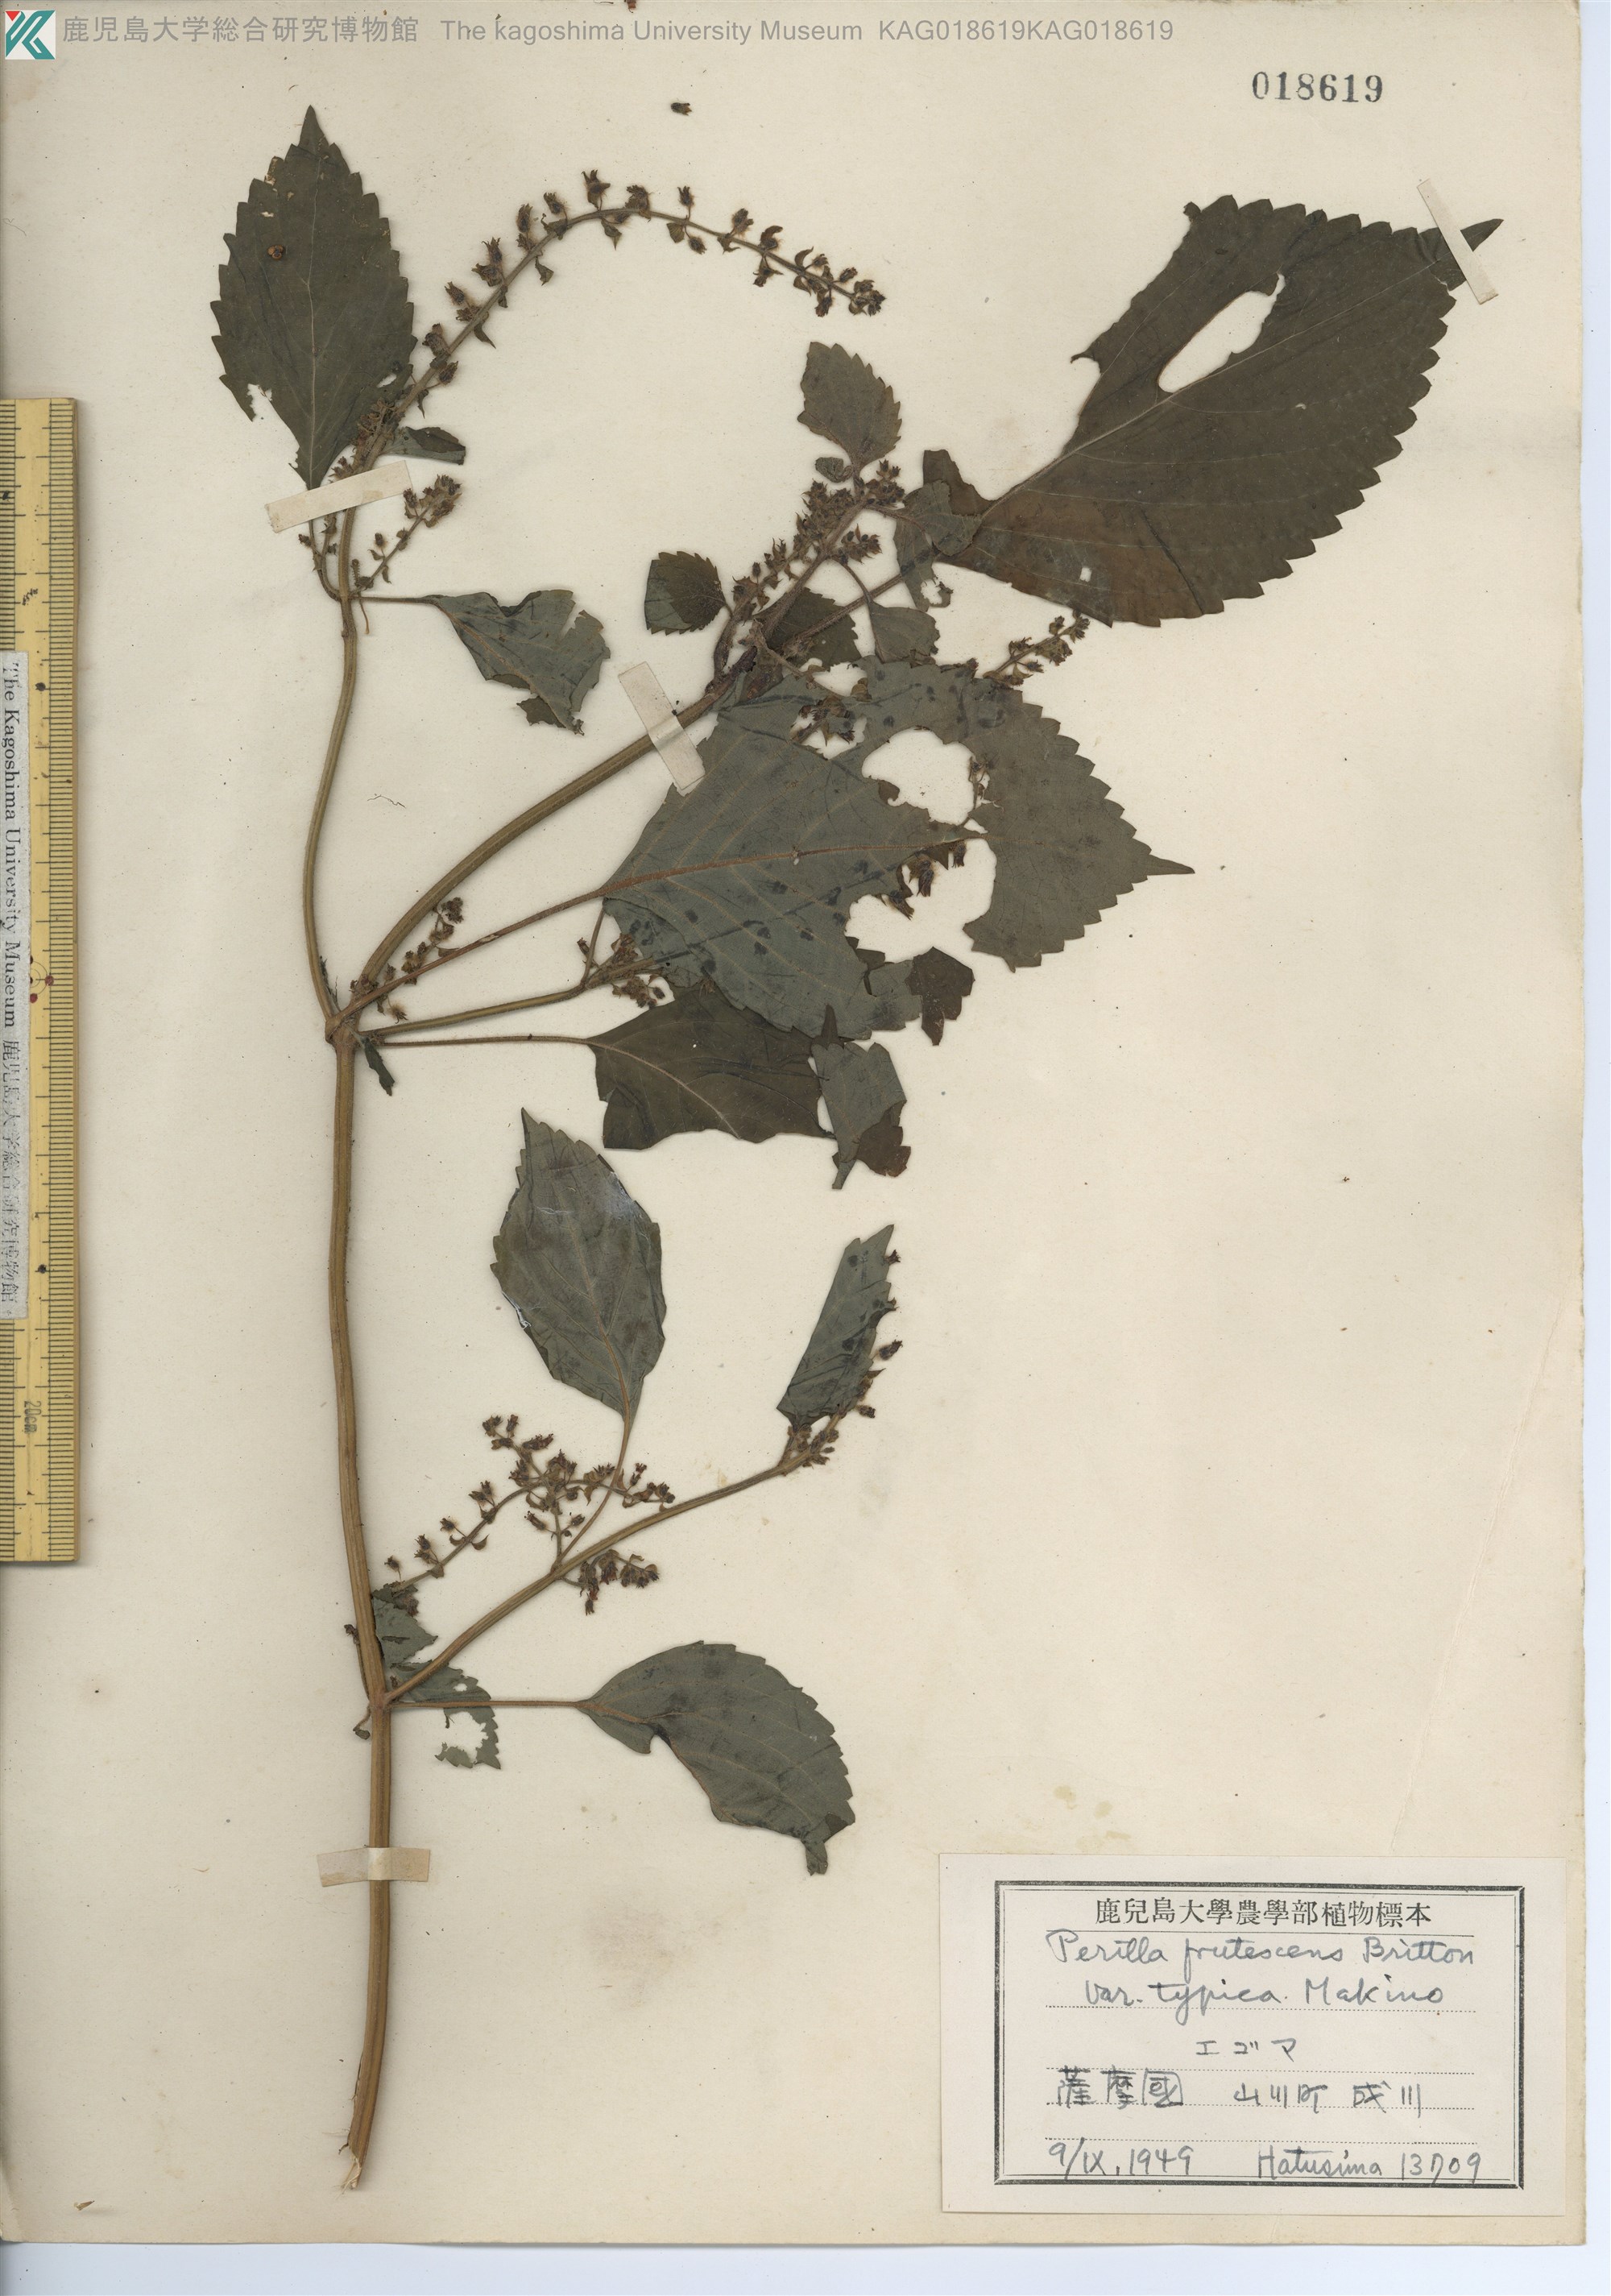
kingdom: Plantae
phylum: Tracheophyta
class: Magnoliopsida
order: Lamiales
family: Lamiaceae
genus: Perilla
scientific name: Perilla frutescens
